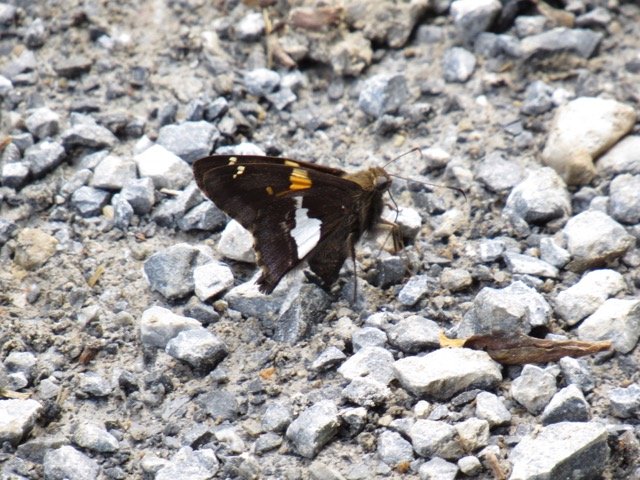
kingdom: Animalia
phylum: Arthropoda
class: Insecta
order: Lepidoptera
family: Hesperiidae
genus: Epargyreus
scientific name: Epargyreus clarus
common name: Silver-spotted Skipper
